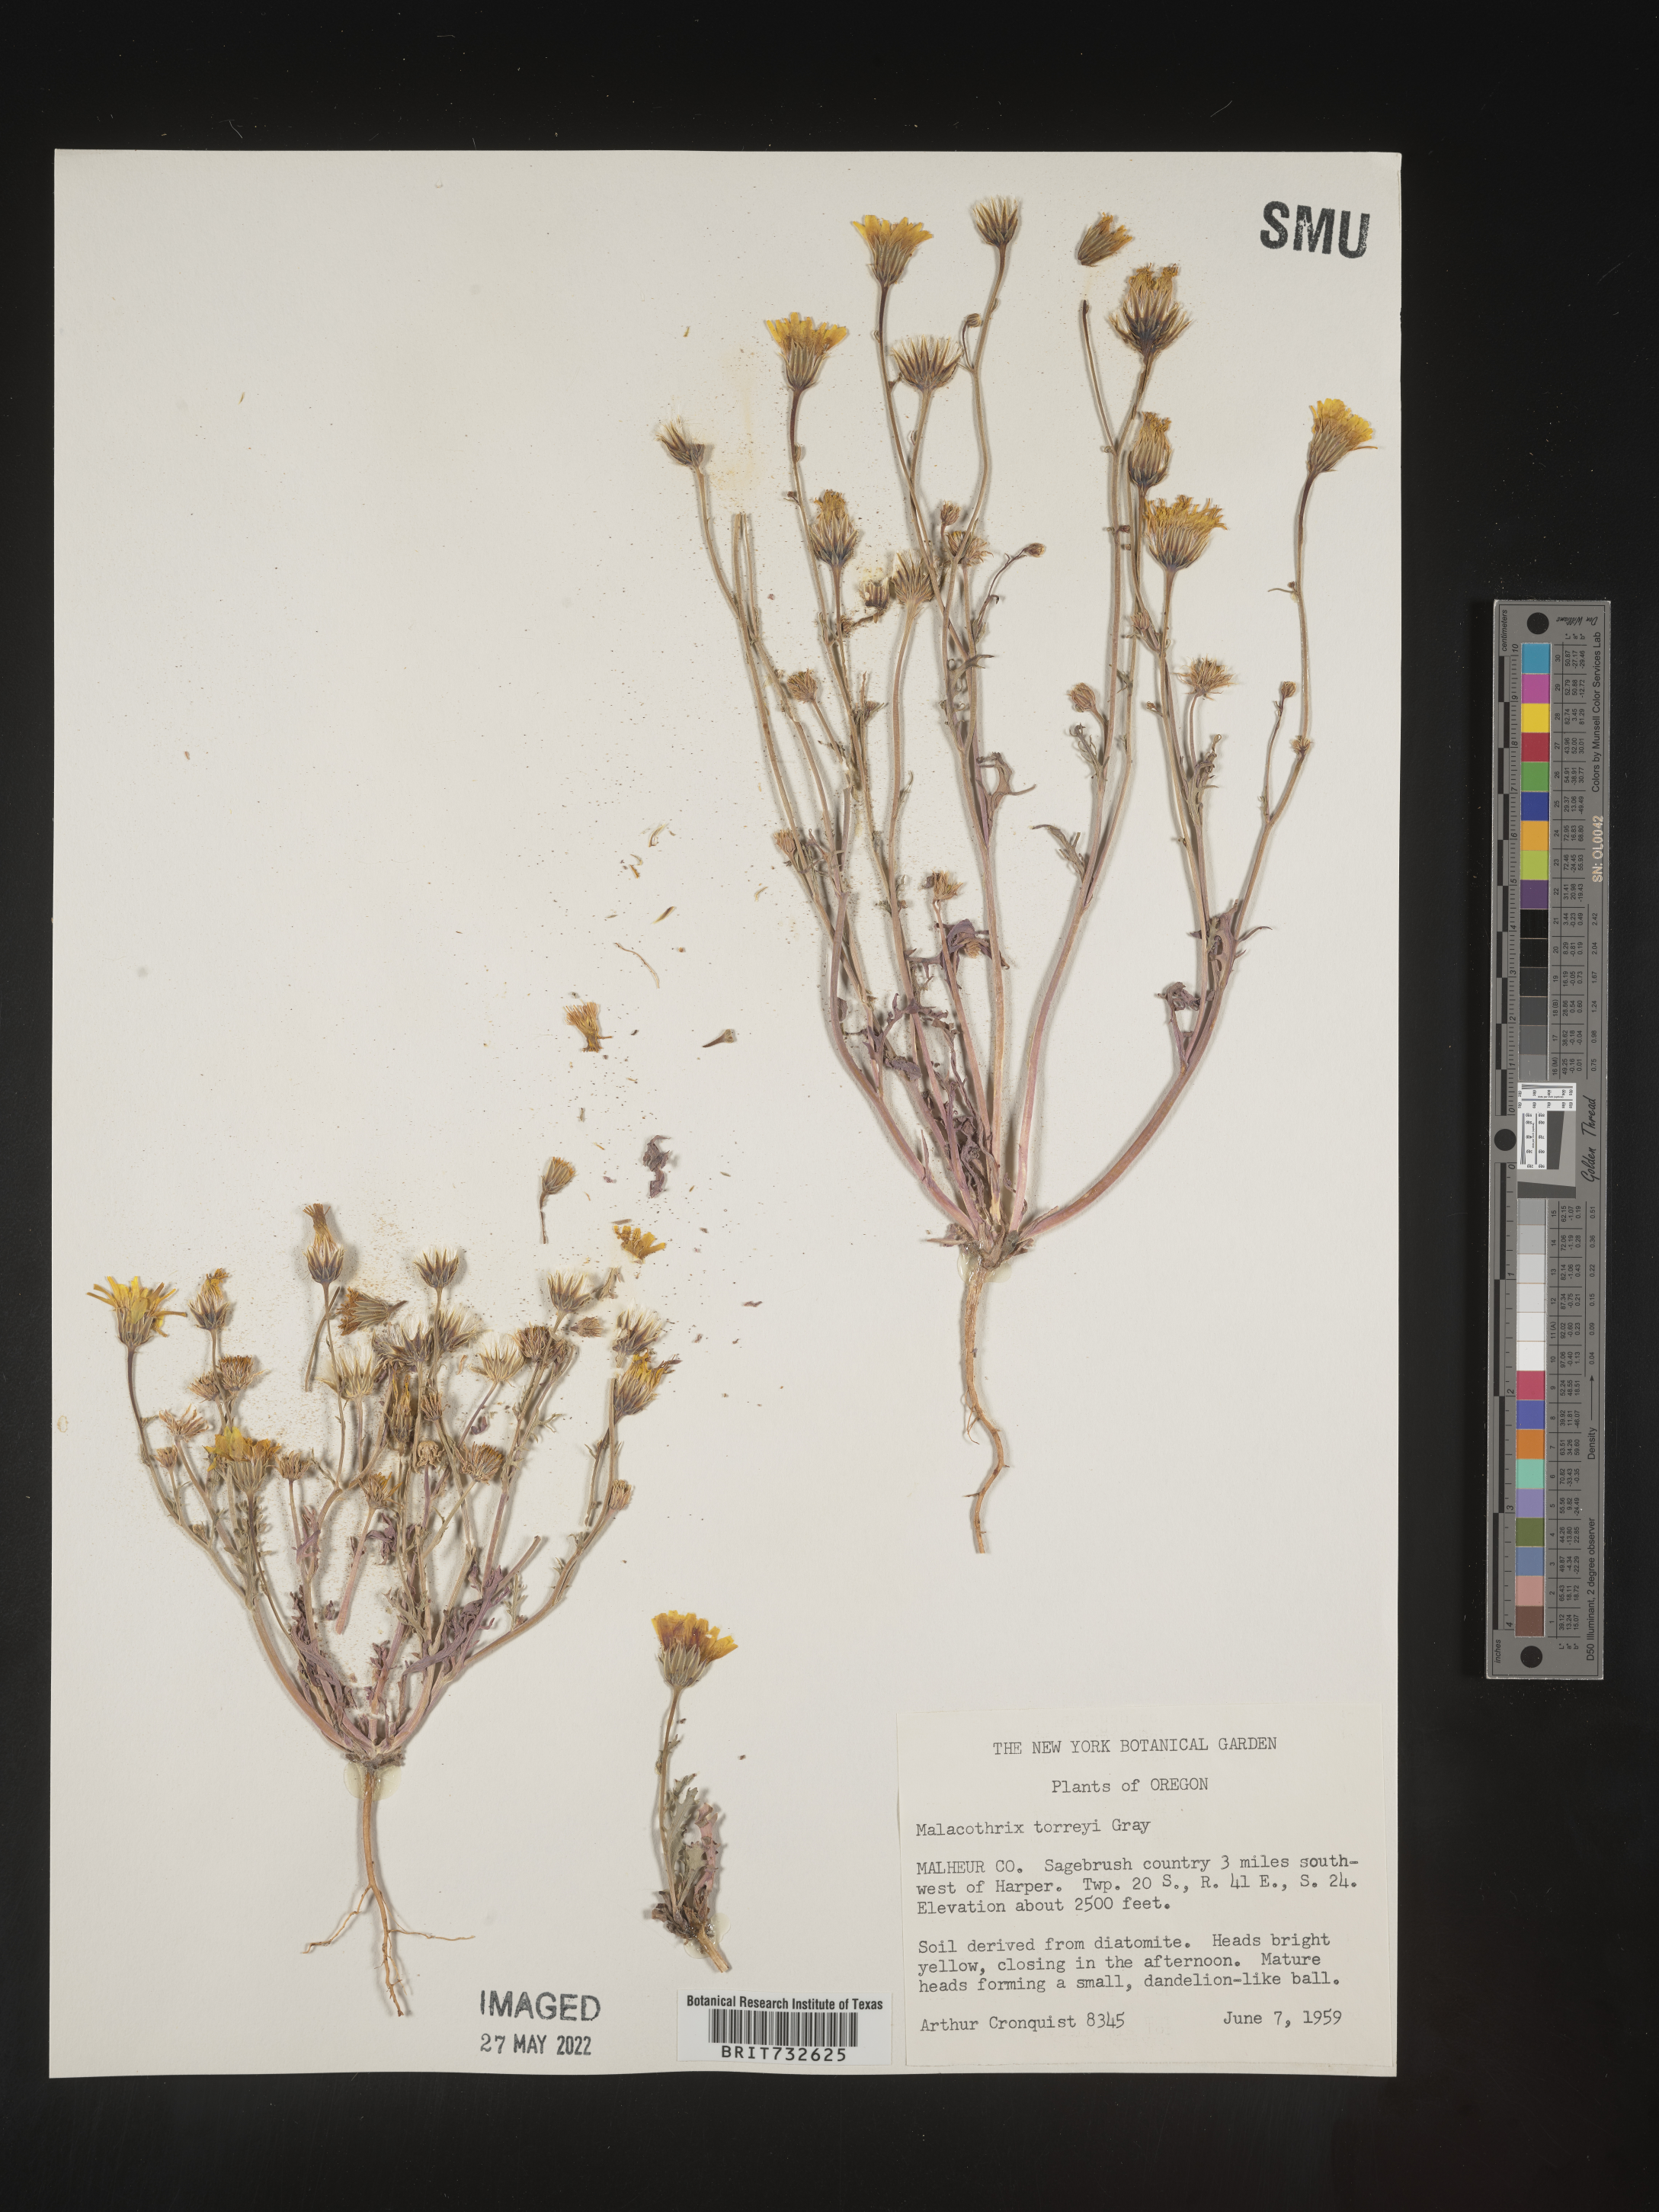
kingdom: Plantae
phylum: Tracheophyta
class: Magnoliopsida
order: Asterales
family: Asteraceae
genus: Malacothrix
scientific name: Malacothrix torreyi
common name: Torrey's desert-dandelion
